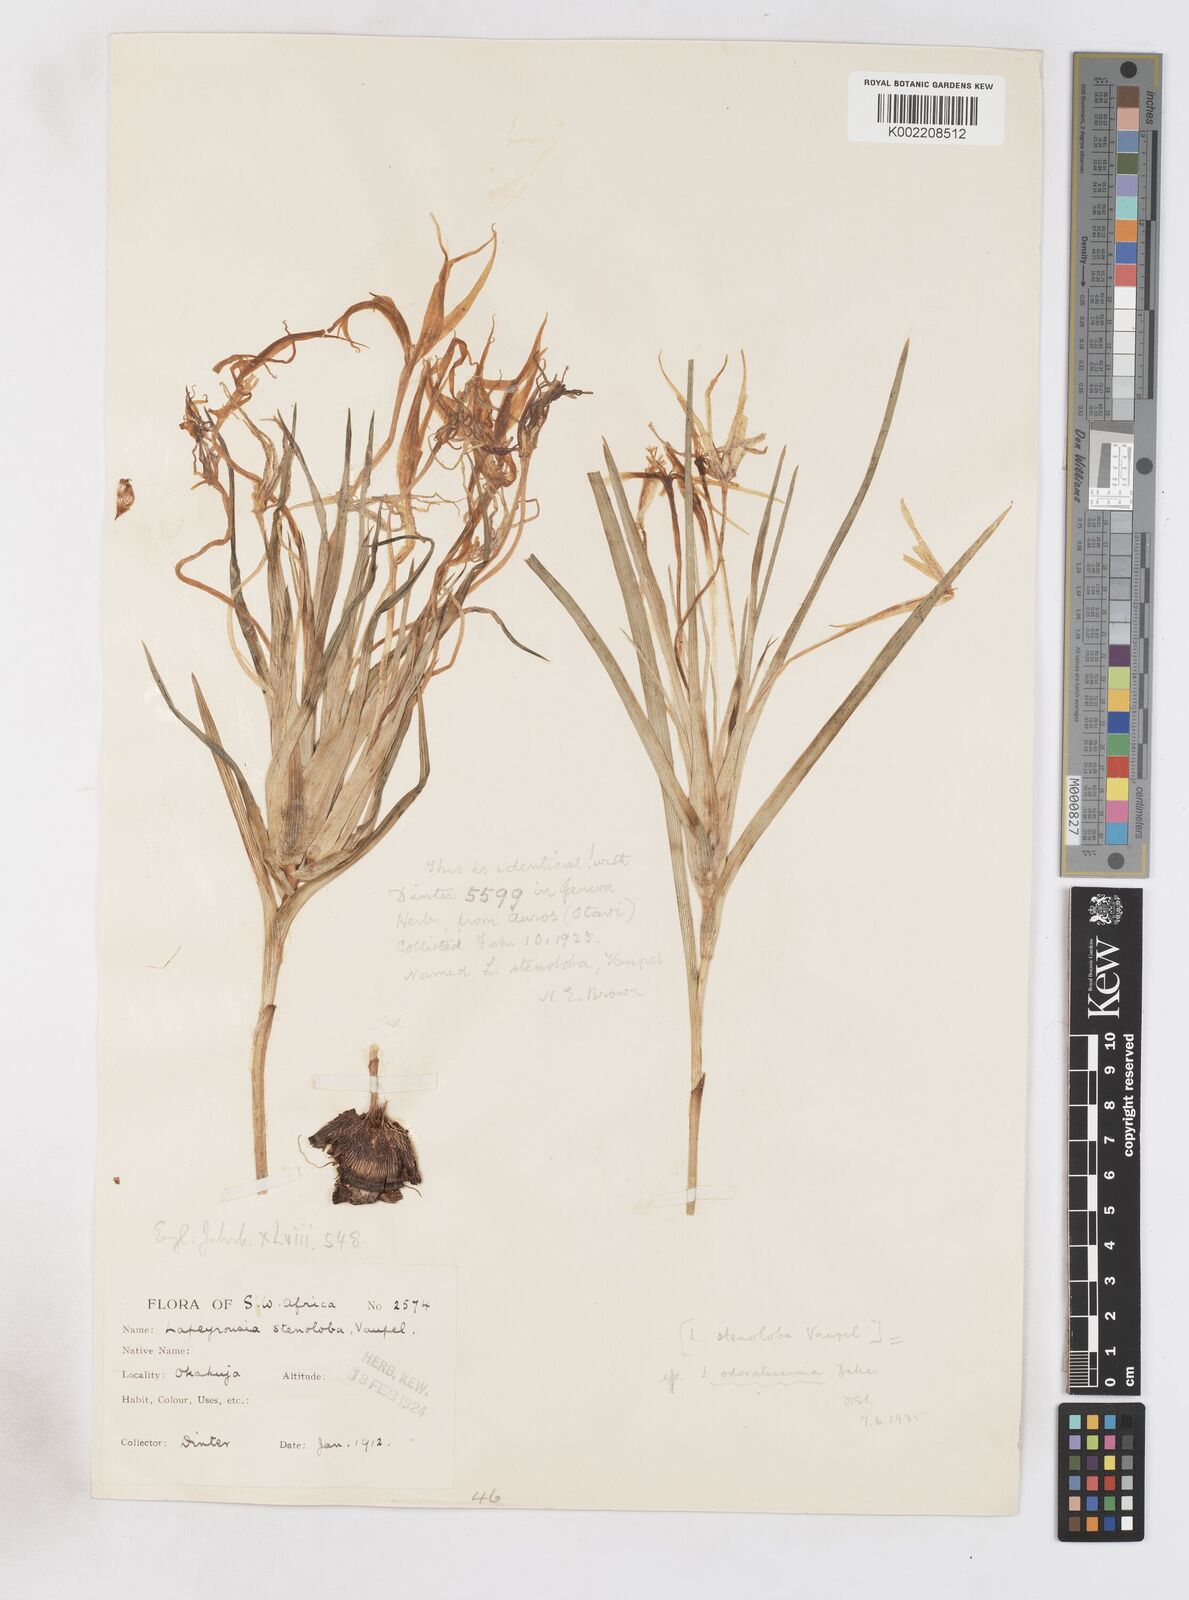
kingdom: Plantae
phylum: Tracheophyta
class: Liliopsida
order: Asparagales
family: Iridaceae
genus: Lapeirousia
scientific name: Lapeirousia odoratissima
